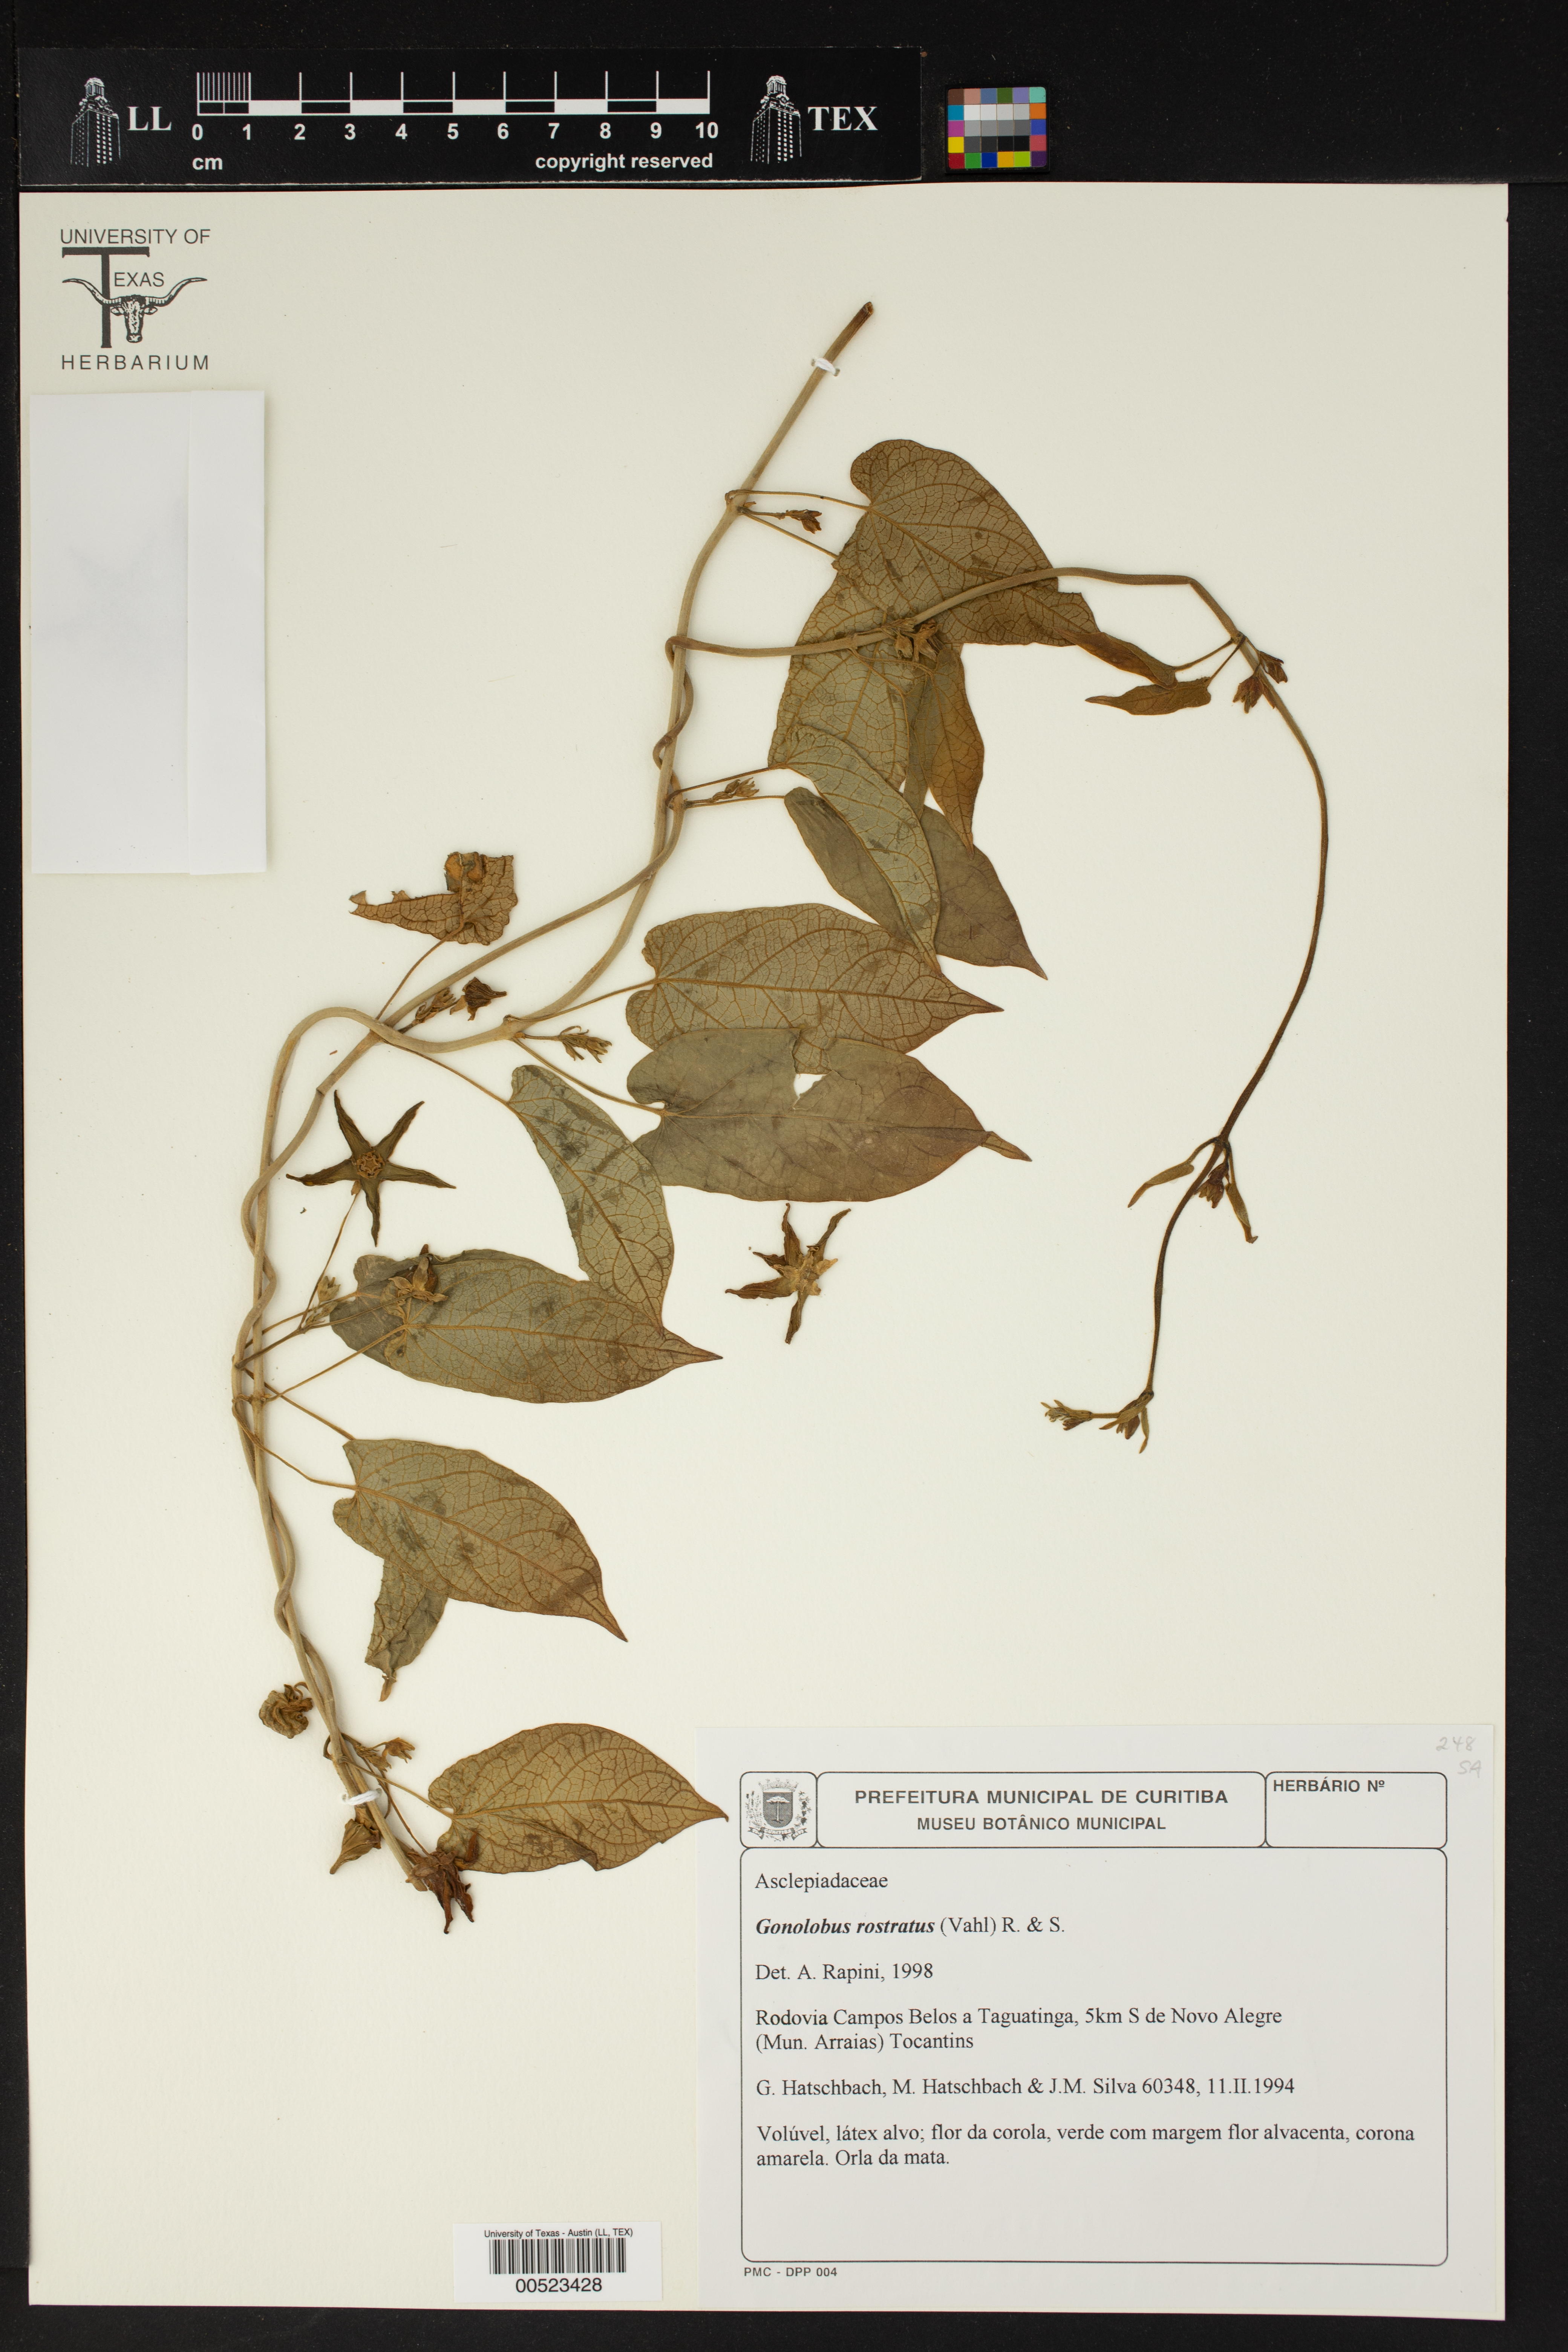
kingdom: Plantae
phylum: Tracheophyta
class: Magnoliopsida
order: Gentianales
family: Apocynaceae
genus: Gonolobus
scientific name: Gonolobus rostratus
